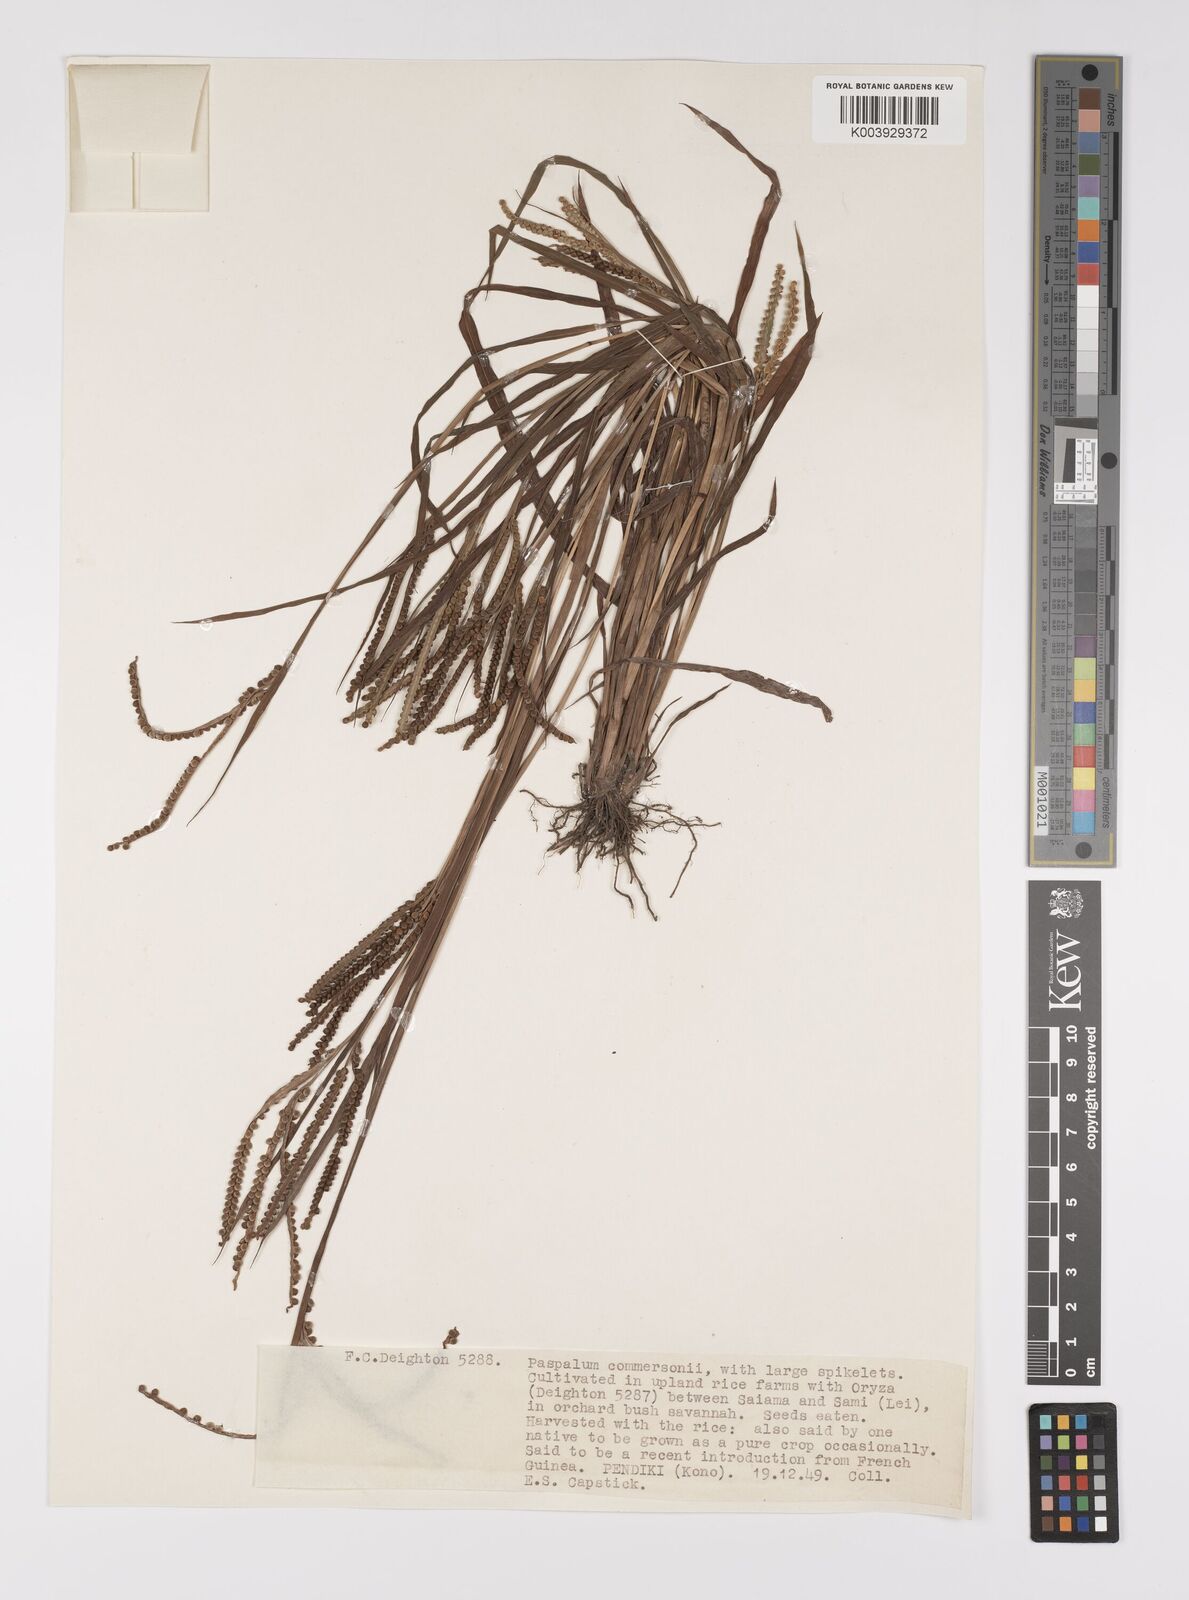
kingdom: Plantae
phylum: Tracheophyta
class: Liliopsida
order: Poales
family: Poaceae
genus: Paspalum
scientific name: Paspalum scrobiculatum
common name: Kodo millet
